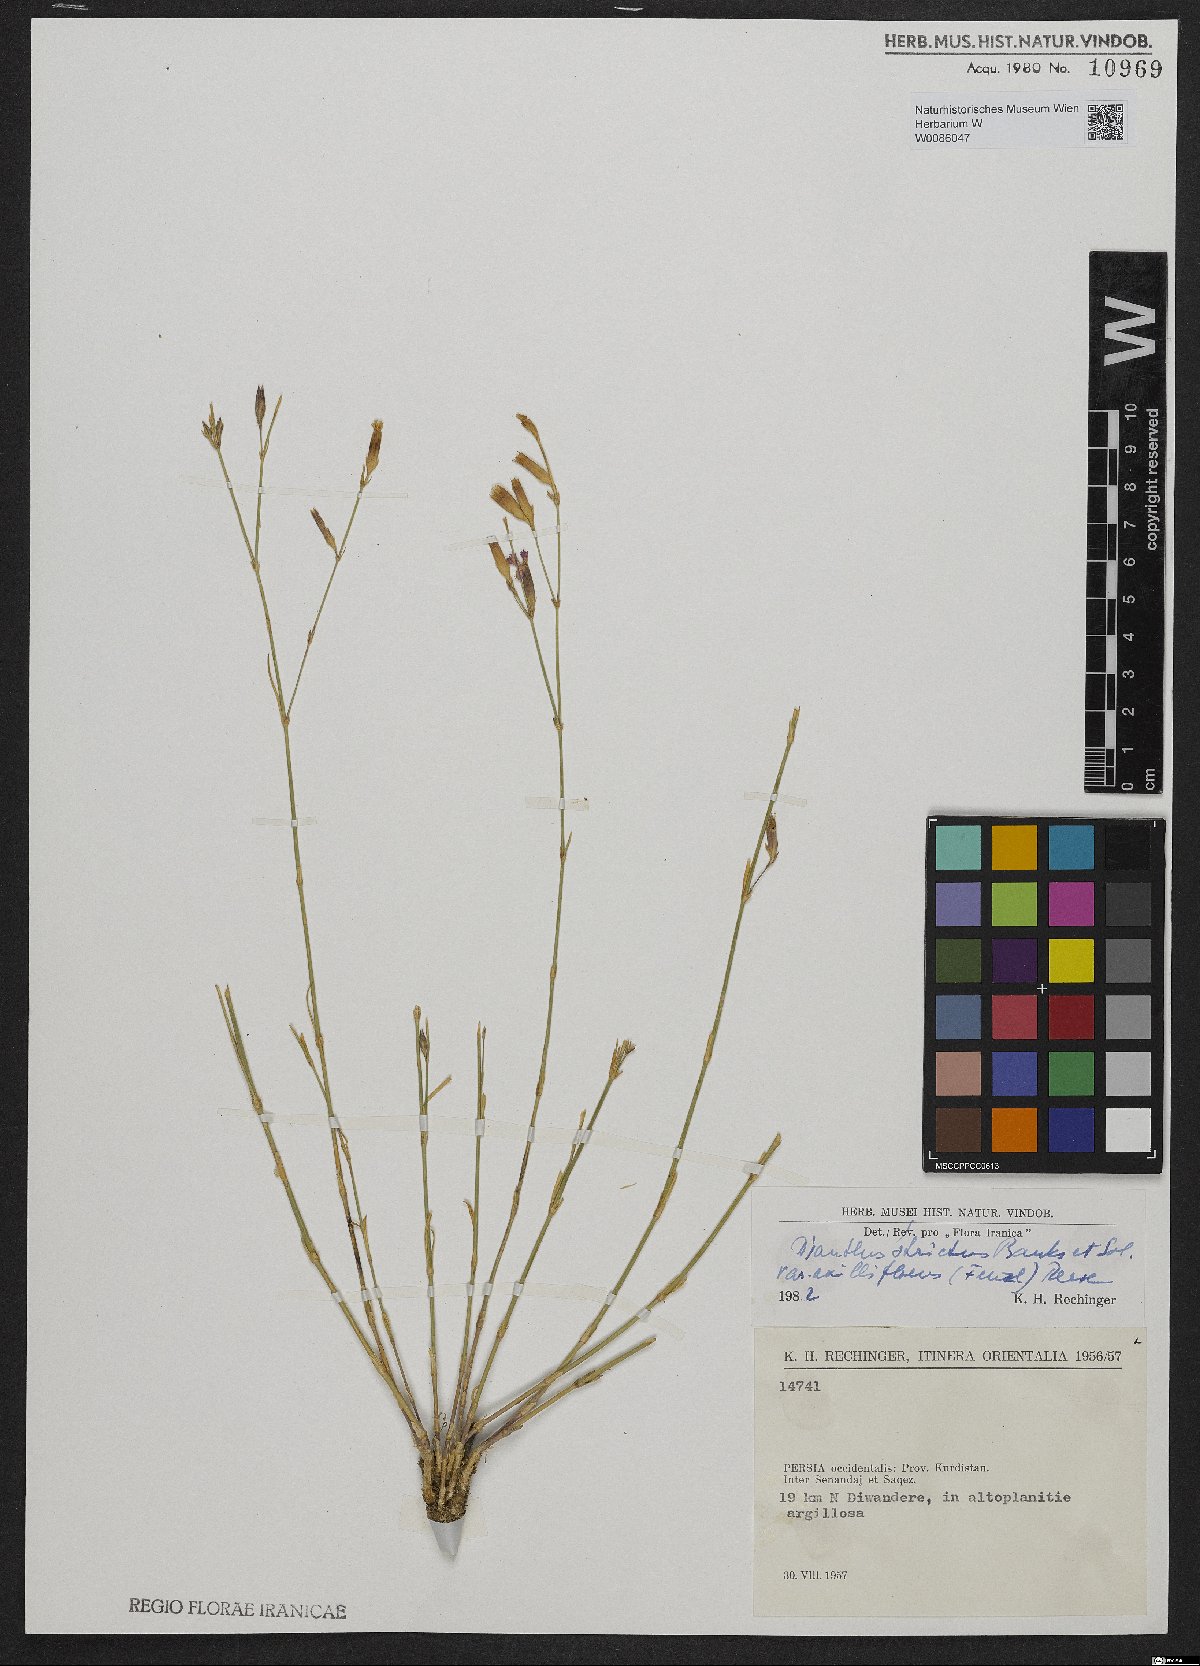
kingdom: Plantae
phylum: Tracheophyta
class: Magnoliopsida
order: Caryophyllales
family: Caryophyllaceae
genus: Dianthus
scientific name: Dianthus strictus
